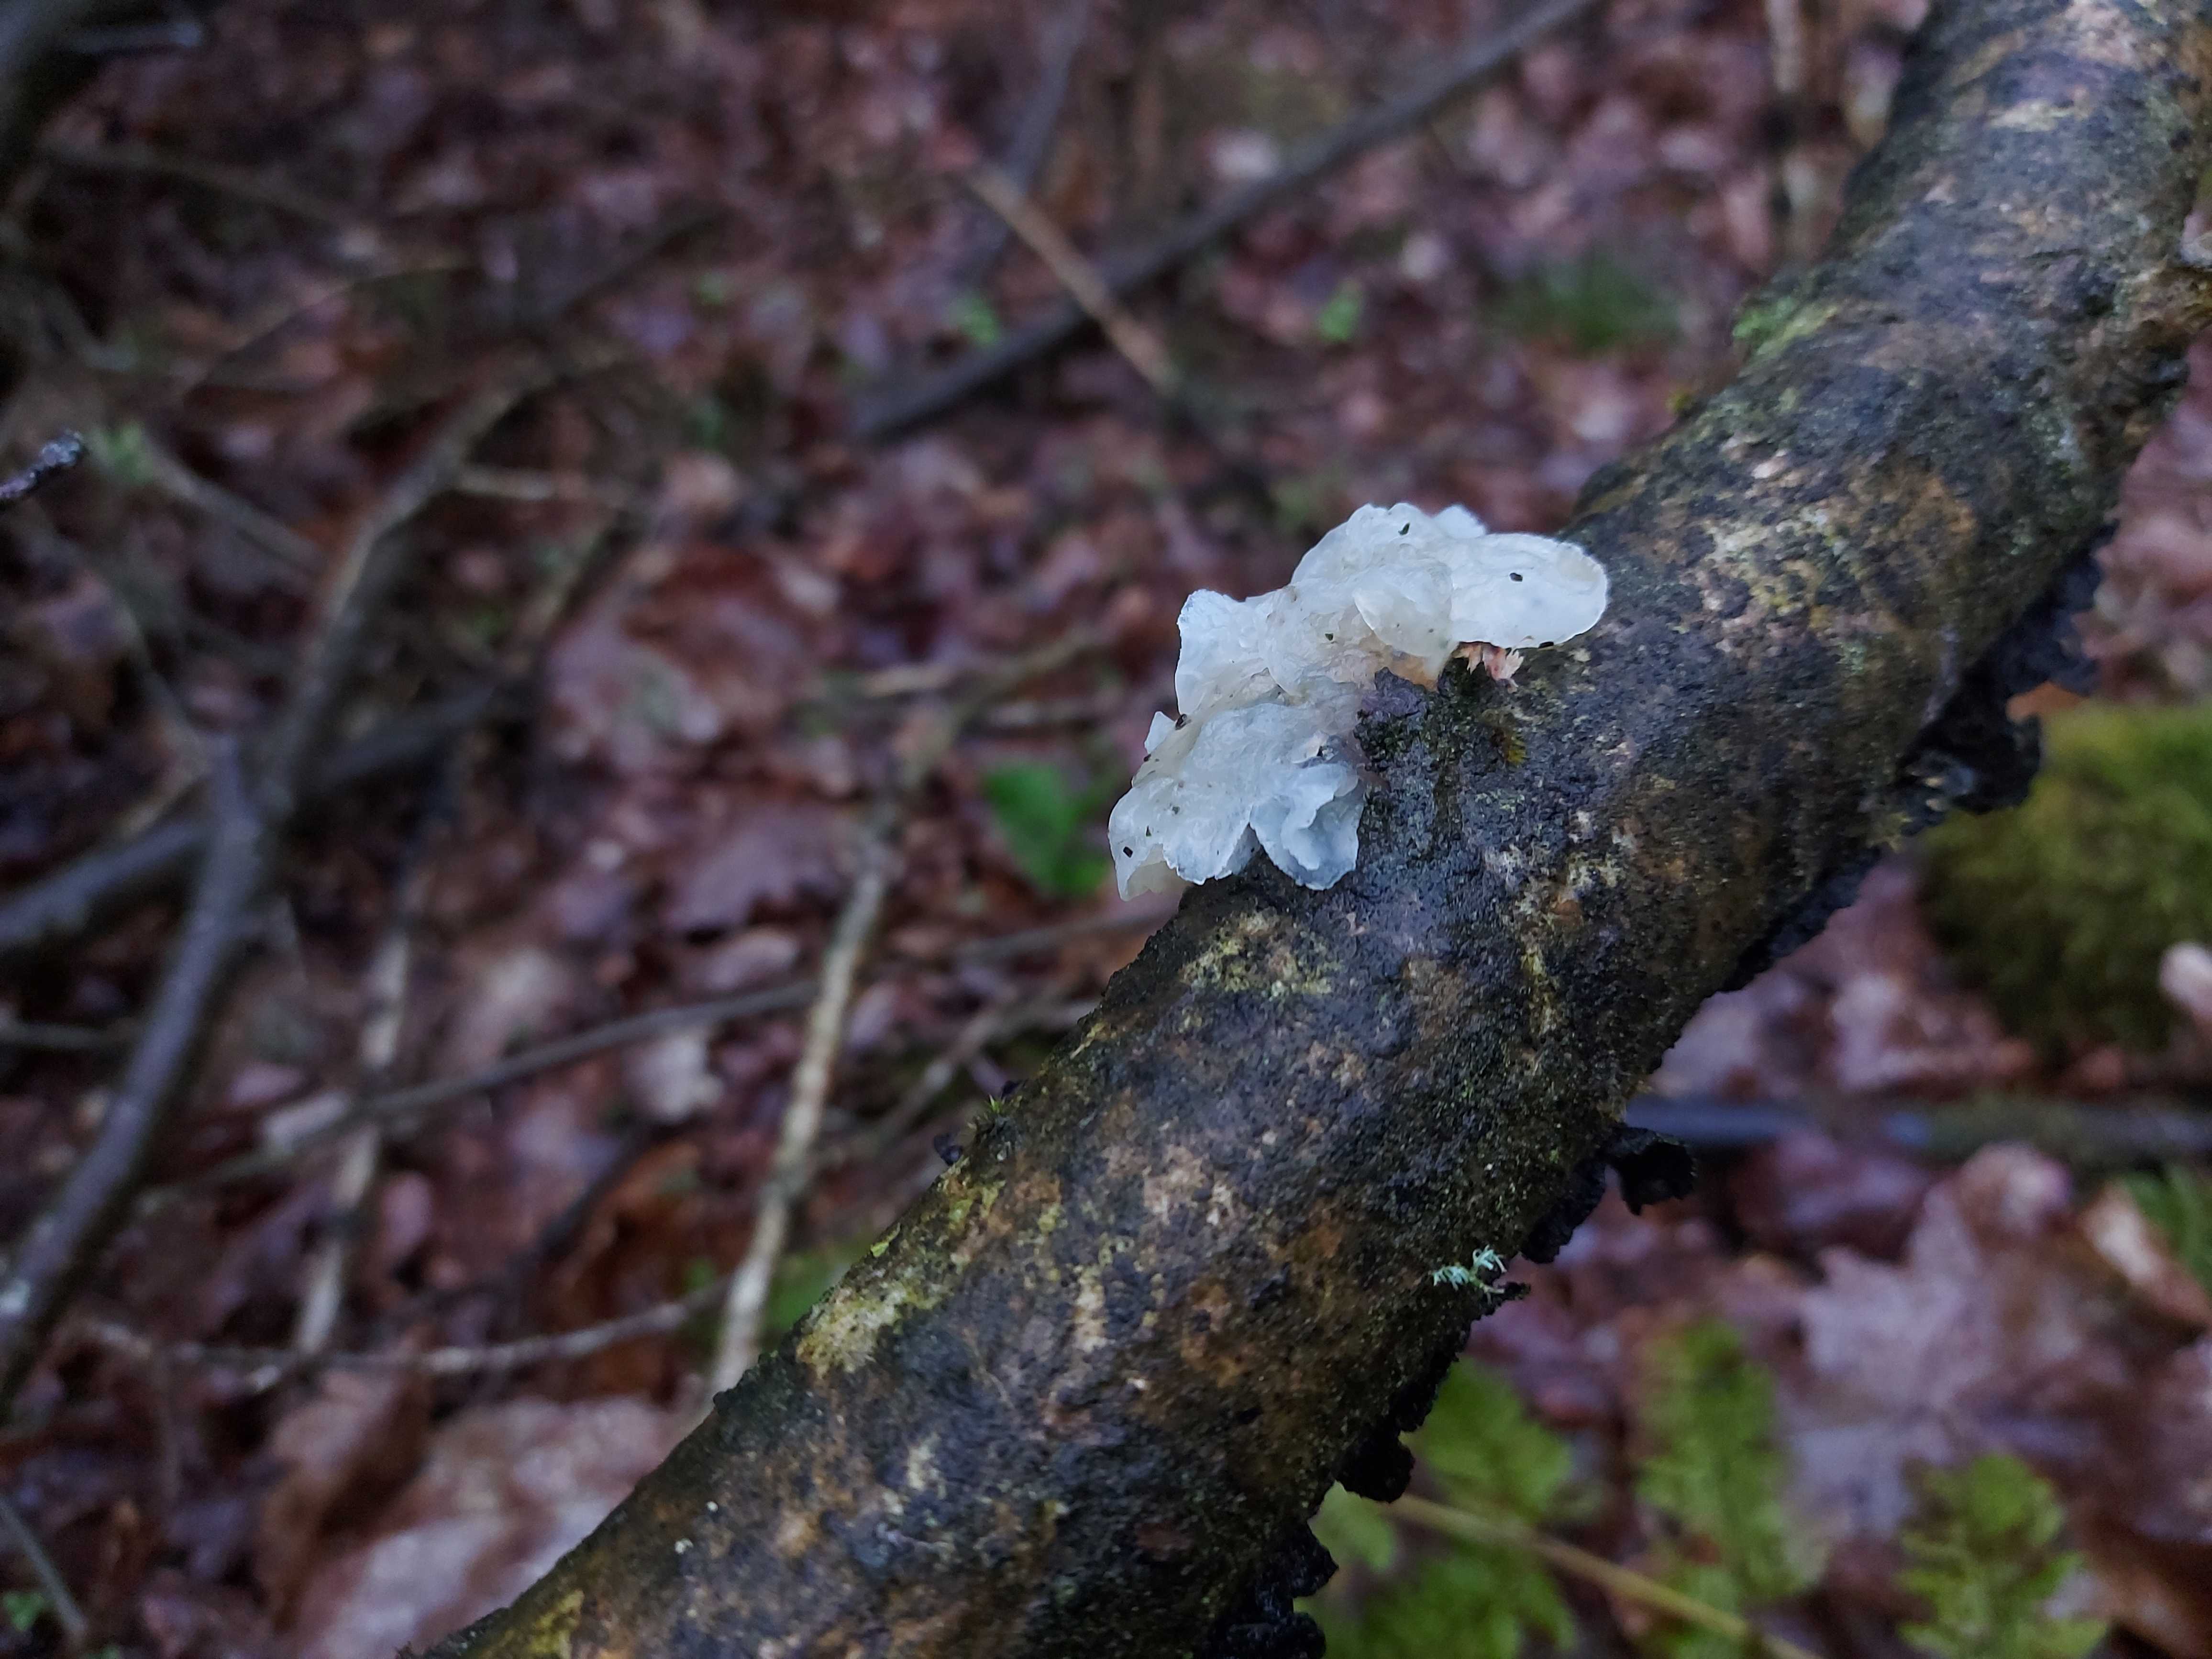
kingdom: Fungi
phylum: Basidiomycota
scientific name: Basidiomycota
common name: basidiesvampe
